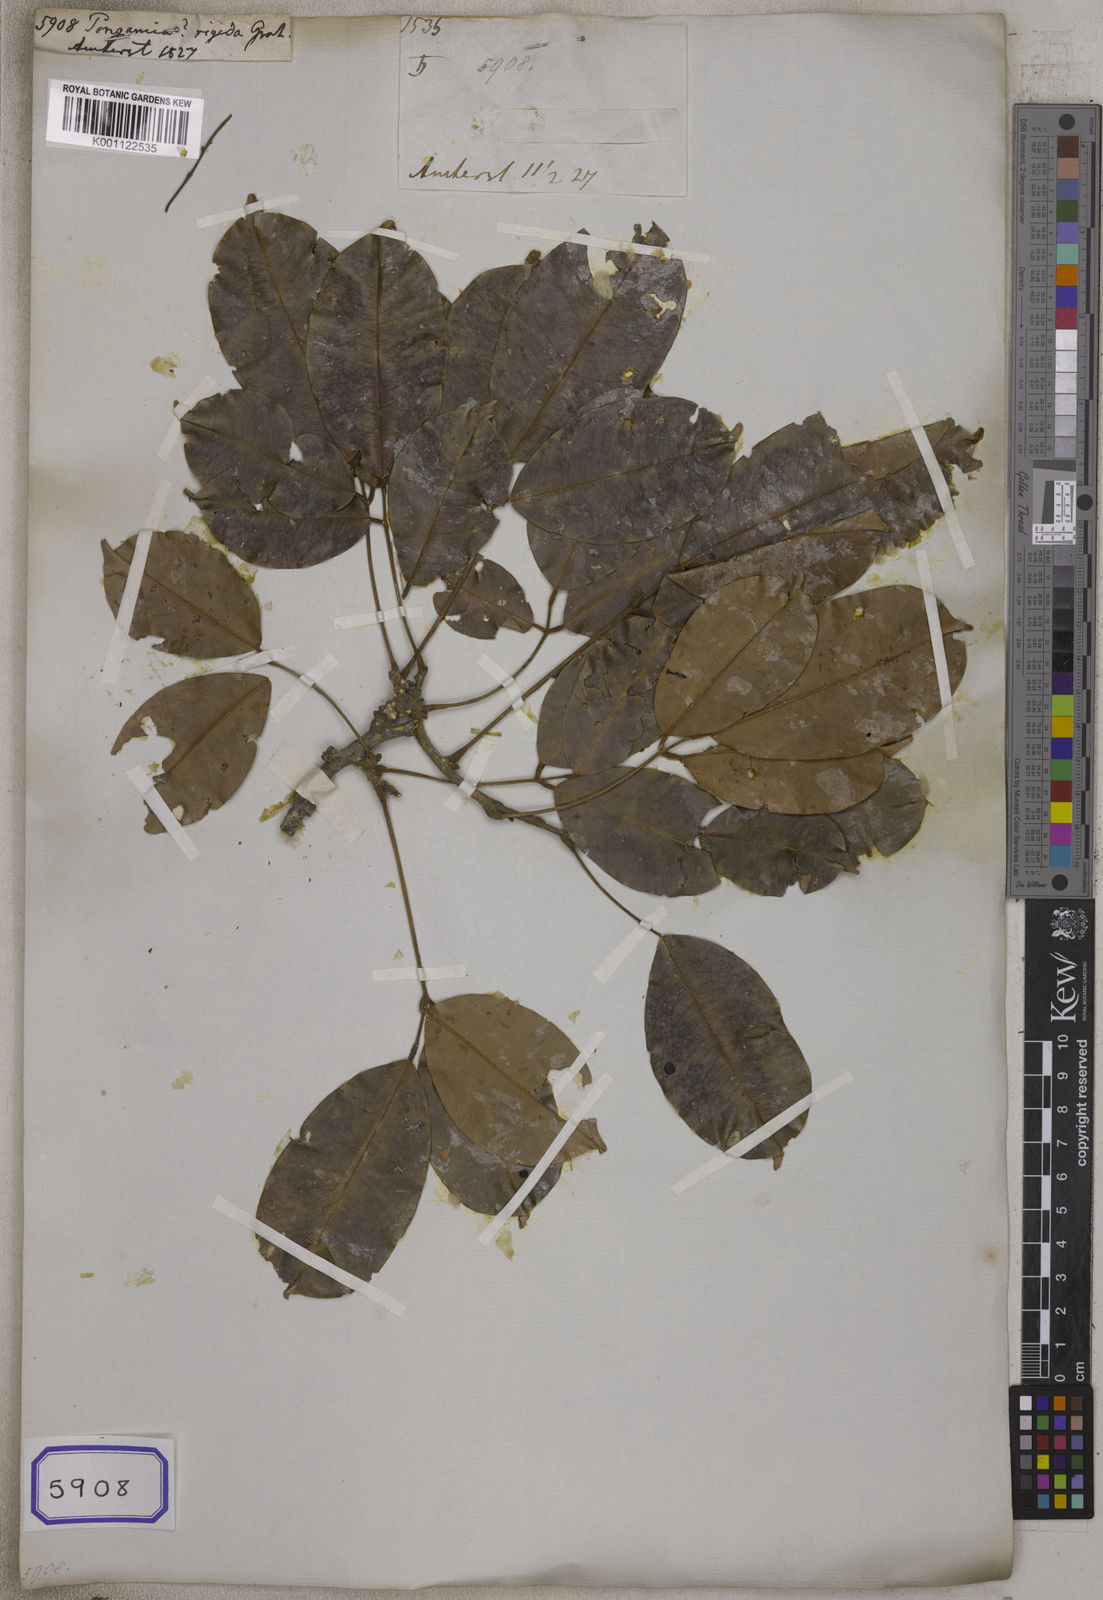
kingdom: Plantae
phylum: Tracheophyta
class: Magnoliopsida
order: Fabales
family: Fabaceae
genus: Spatholobus
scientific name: Spatholobus acuminatus
